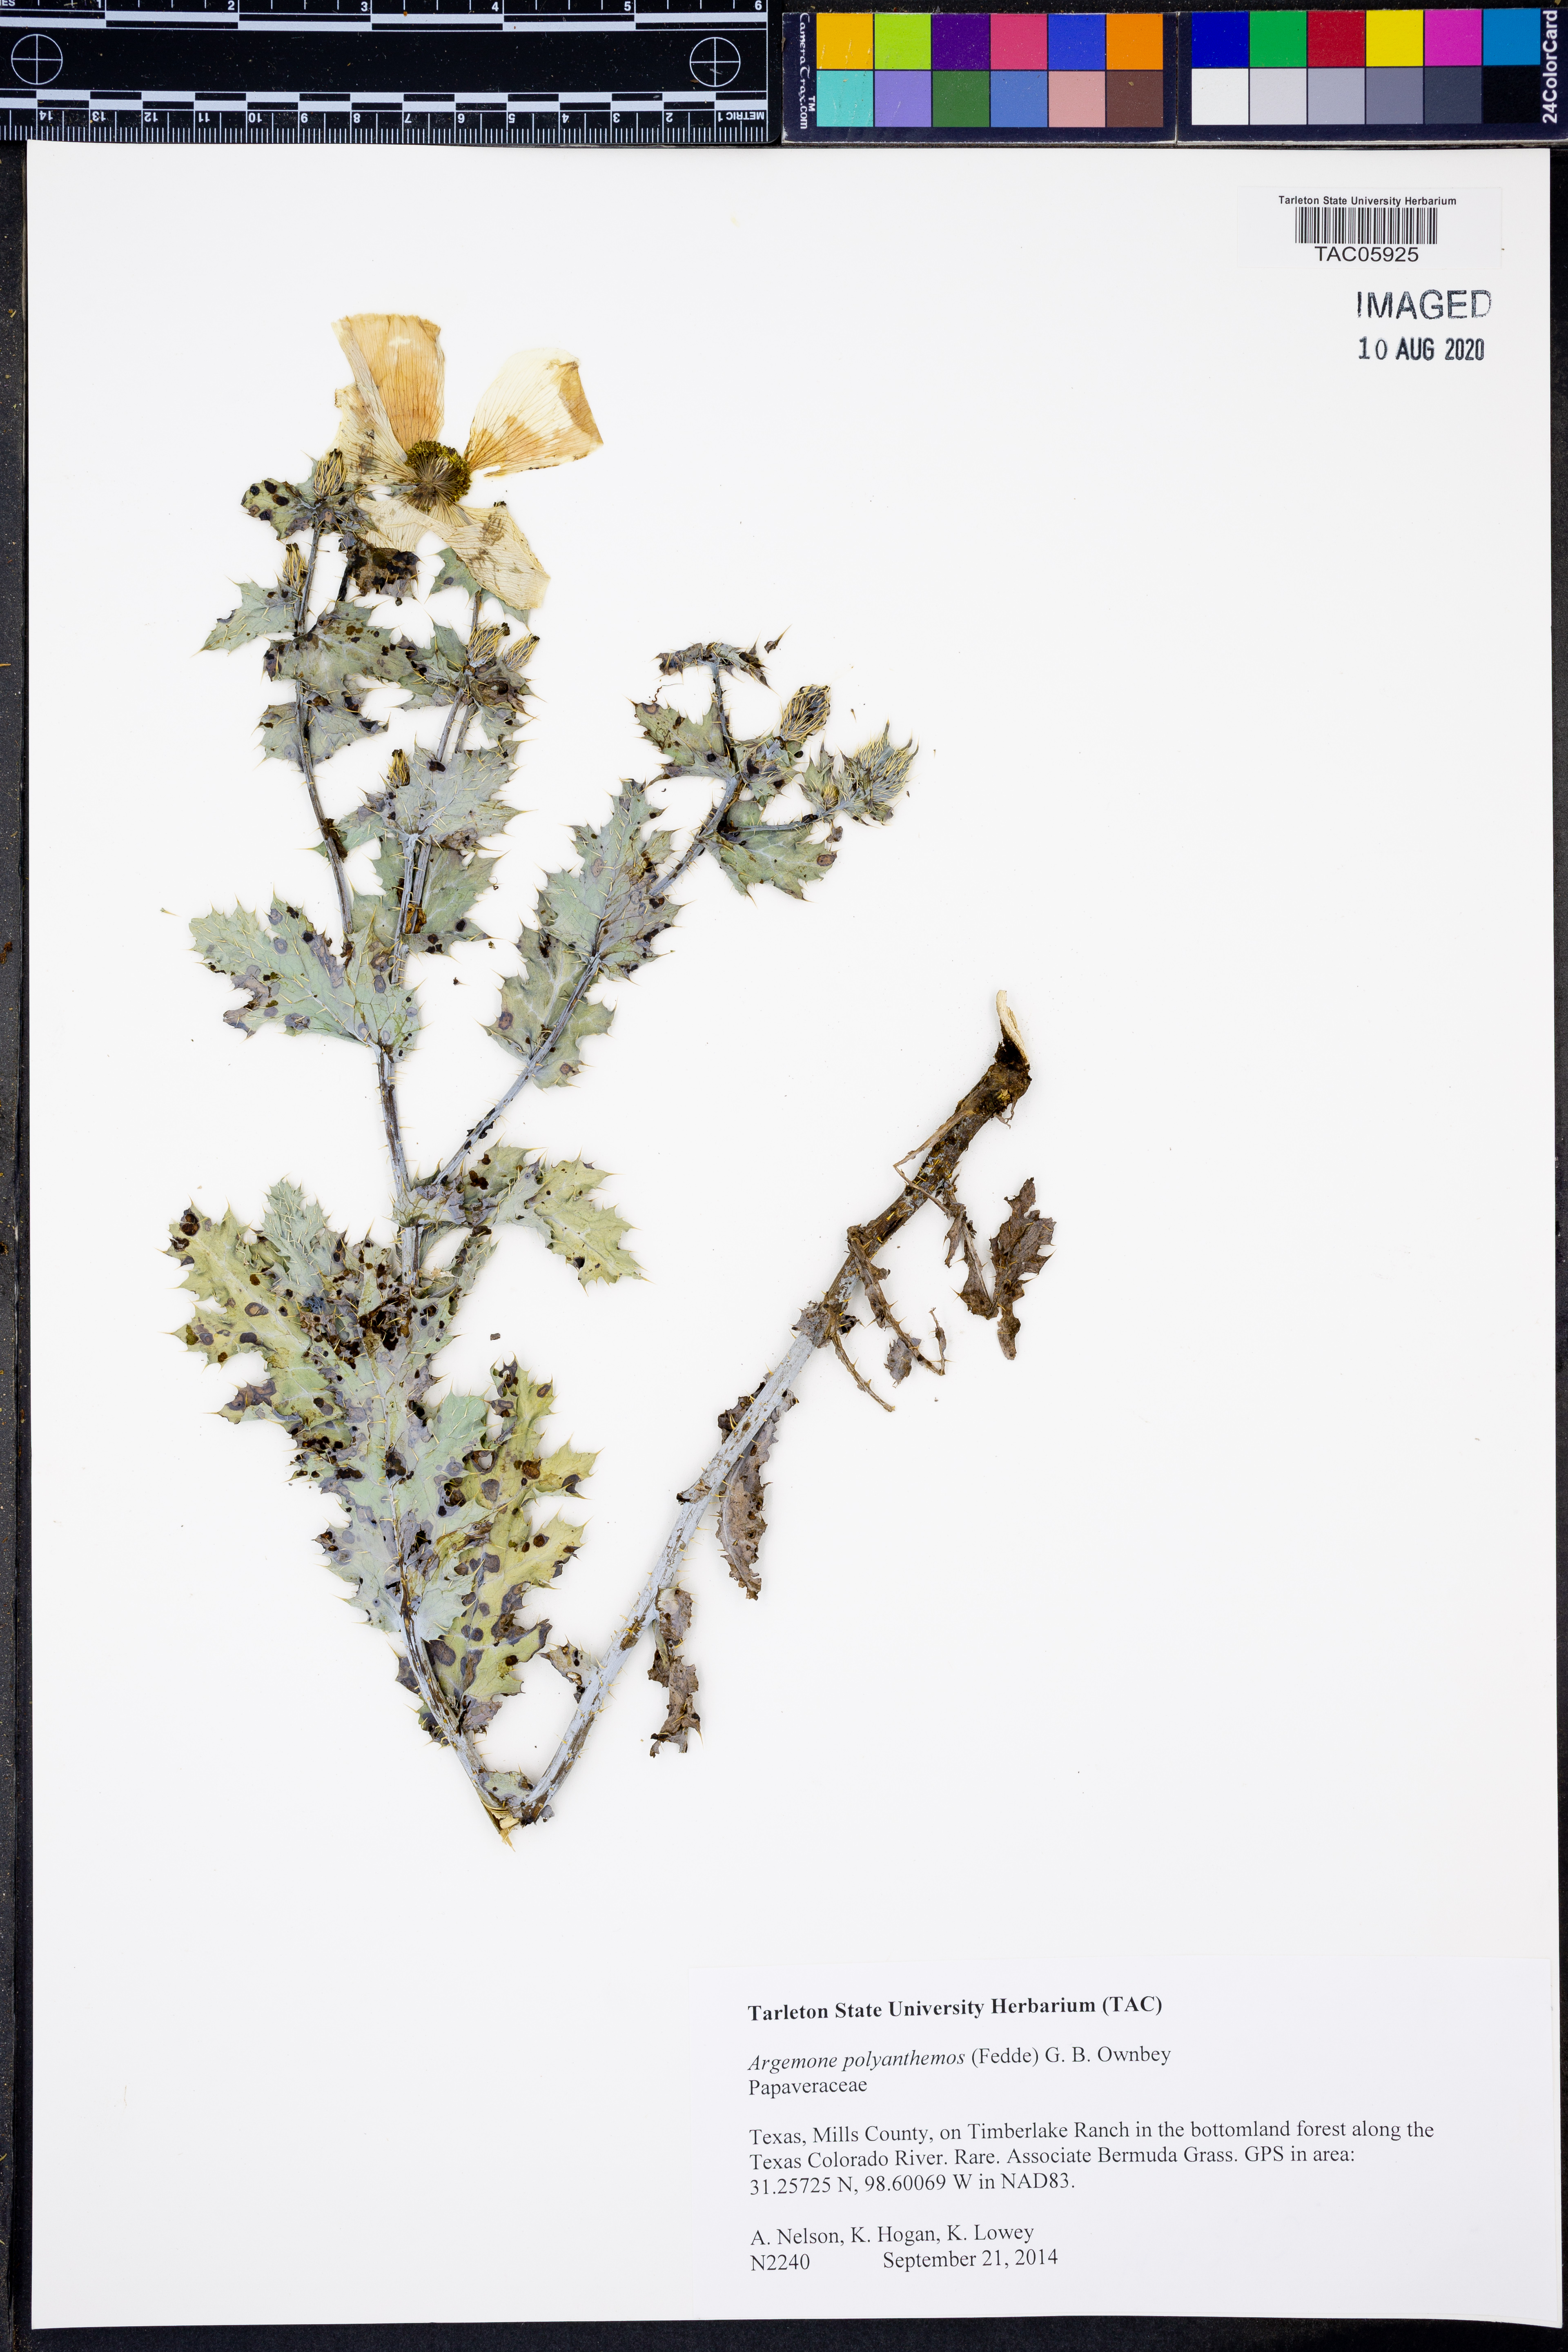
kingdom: Plantae
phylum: Tracheophyta
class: Magnoliopsida
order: Ranunculales
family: Papaveraceae
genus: Argemone
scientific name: Argemone polyanthemos
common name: Plains prickly-poppy
